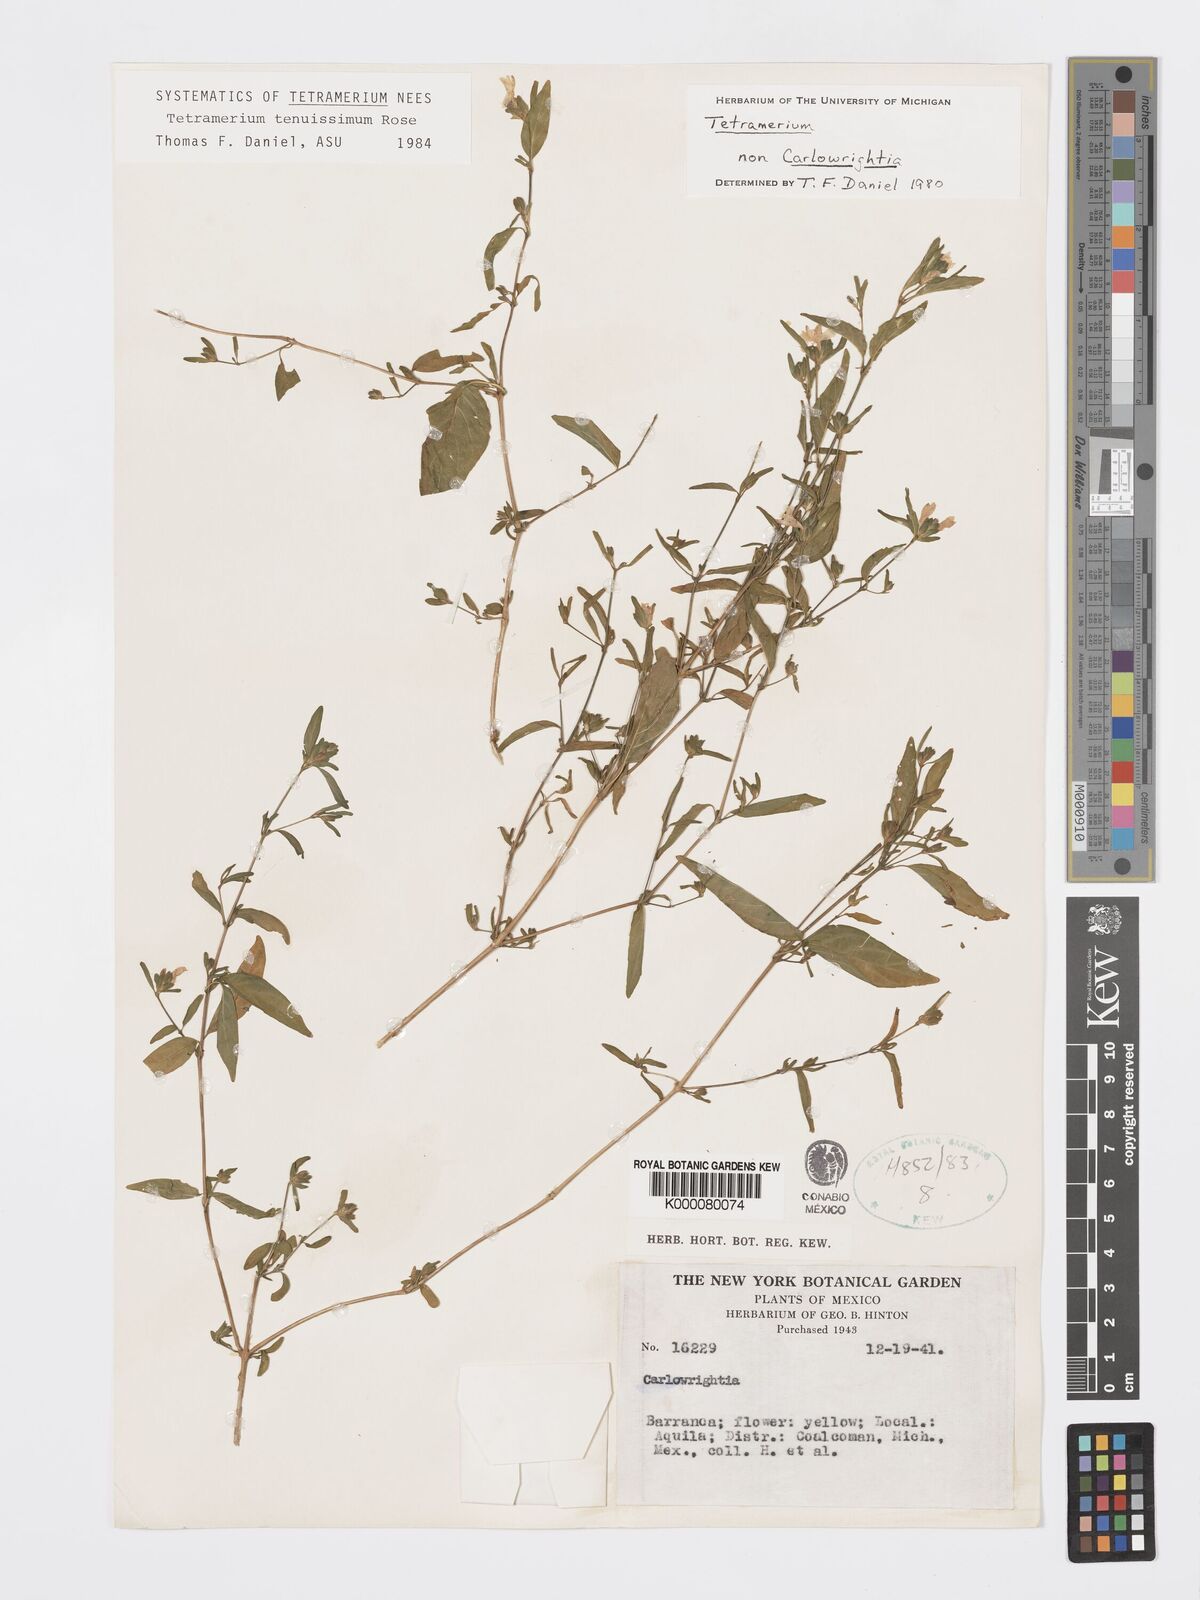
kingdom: Plantae
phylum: Tracheophyta
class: Magnoliopsida
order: Lamiales
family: Acanthaceae
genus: Tetramerium
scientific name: Tetramerium tenuissimum
